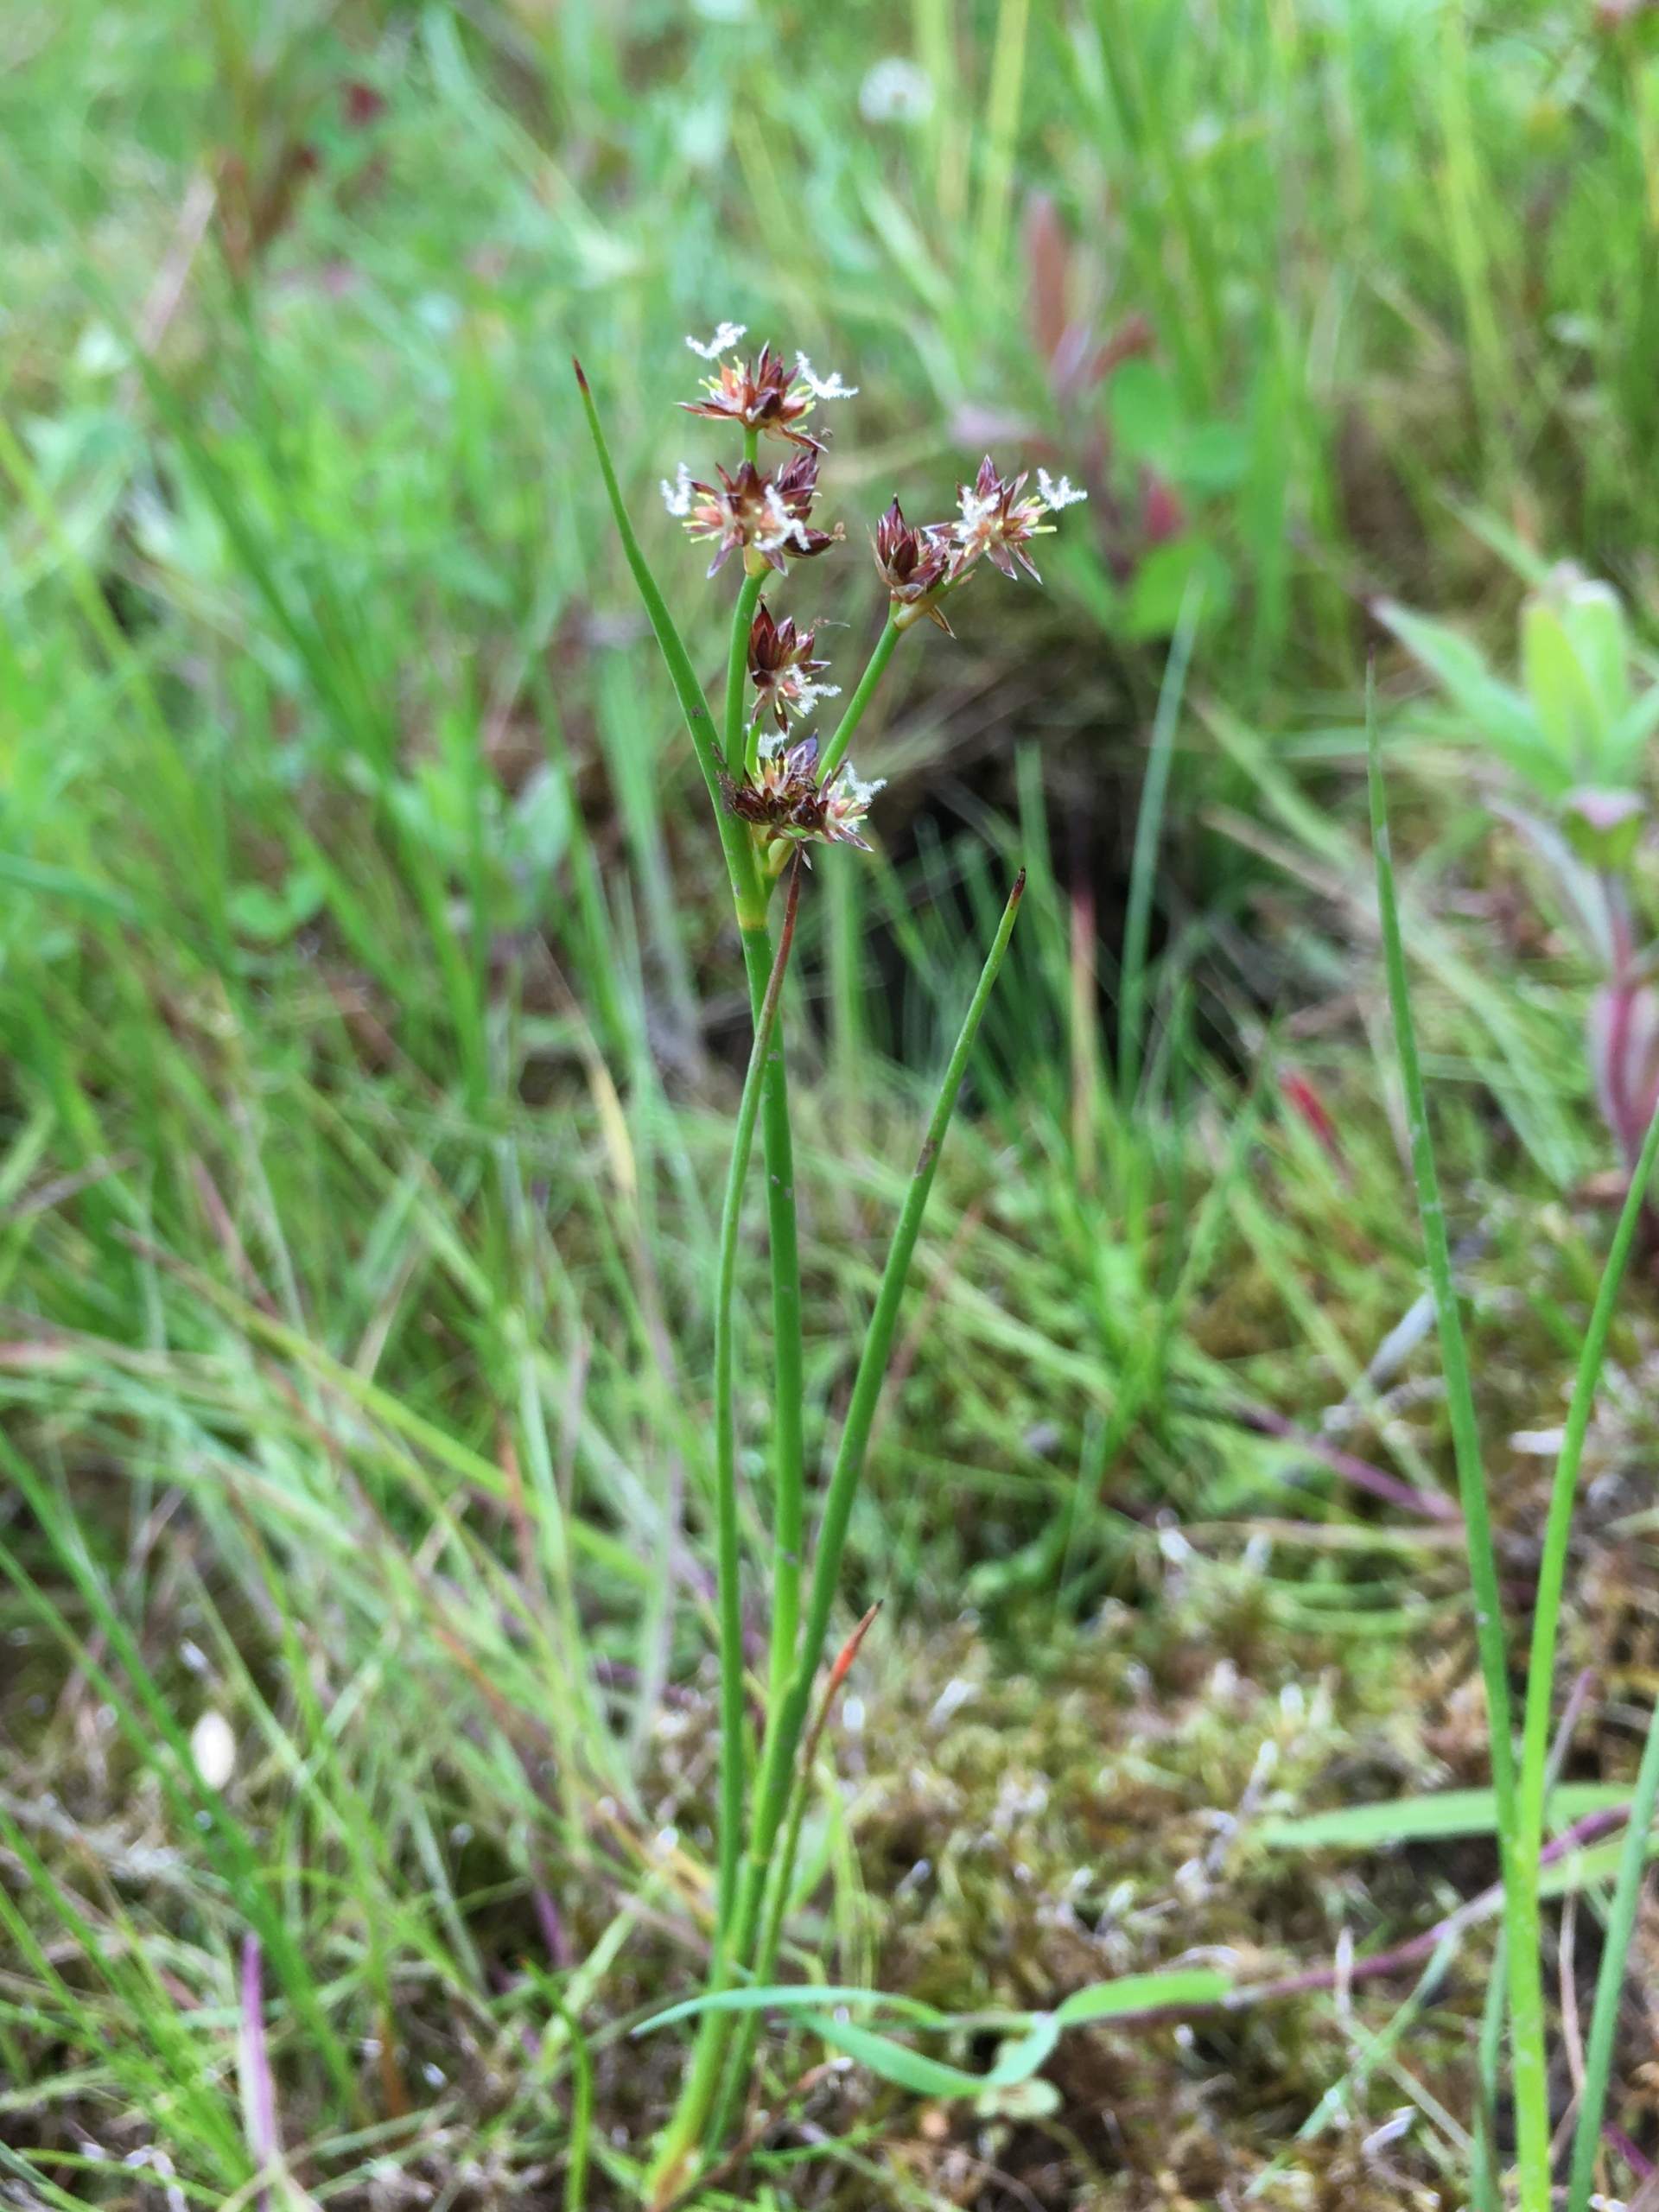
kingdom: Plantae
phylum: Tracheophyta
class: Liliopsida
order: Poales
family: Juncaceae
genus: Juncus
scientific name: Juncus articulatus
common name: Glanskapslet siv
